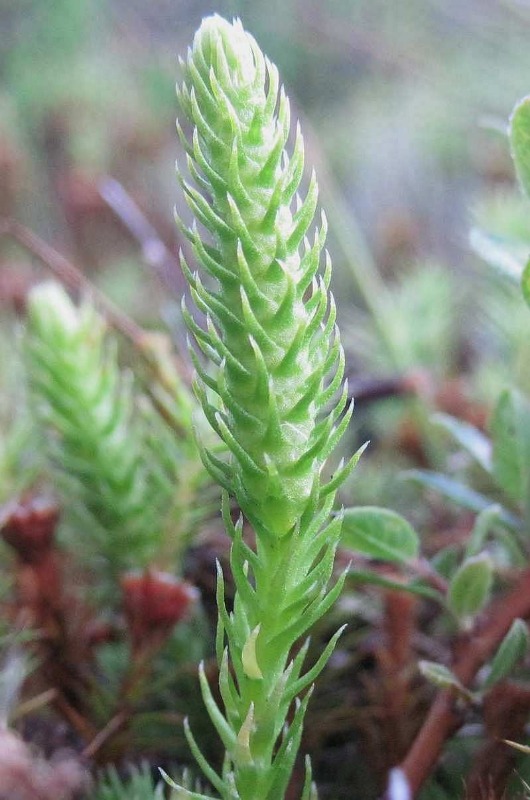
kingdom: Plantae
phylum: Tracheophyta
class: Lycopodiopsida
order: Lycopodiales
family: Lycopodiaceae
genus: Lycopodiella
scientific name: Lycopodiella inundata
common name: Liden ulvefod
